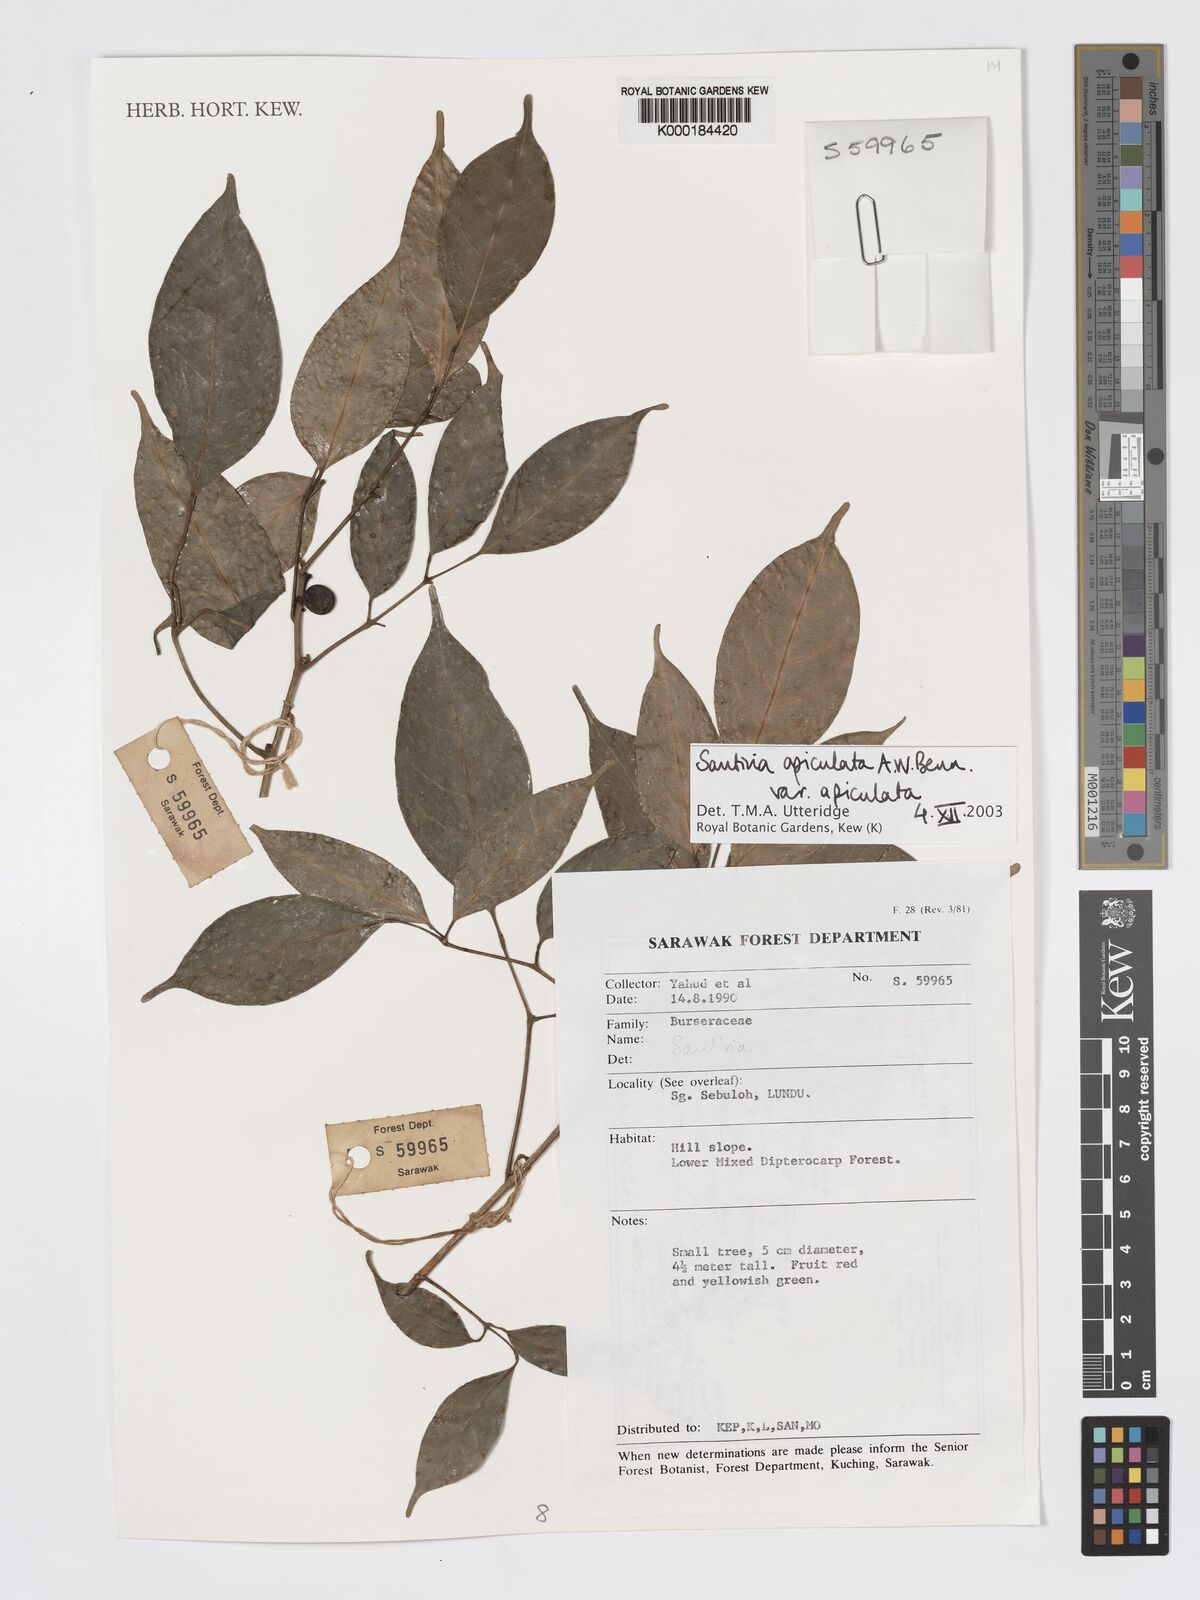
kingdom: Plantae
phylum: Tracheophyta
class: Magnoliopsida
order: Sapindales
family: Burseraceae
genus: Santiria
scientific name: Santiria apiculata
